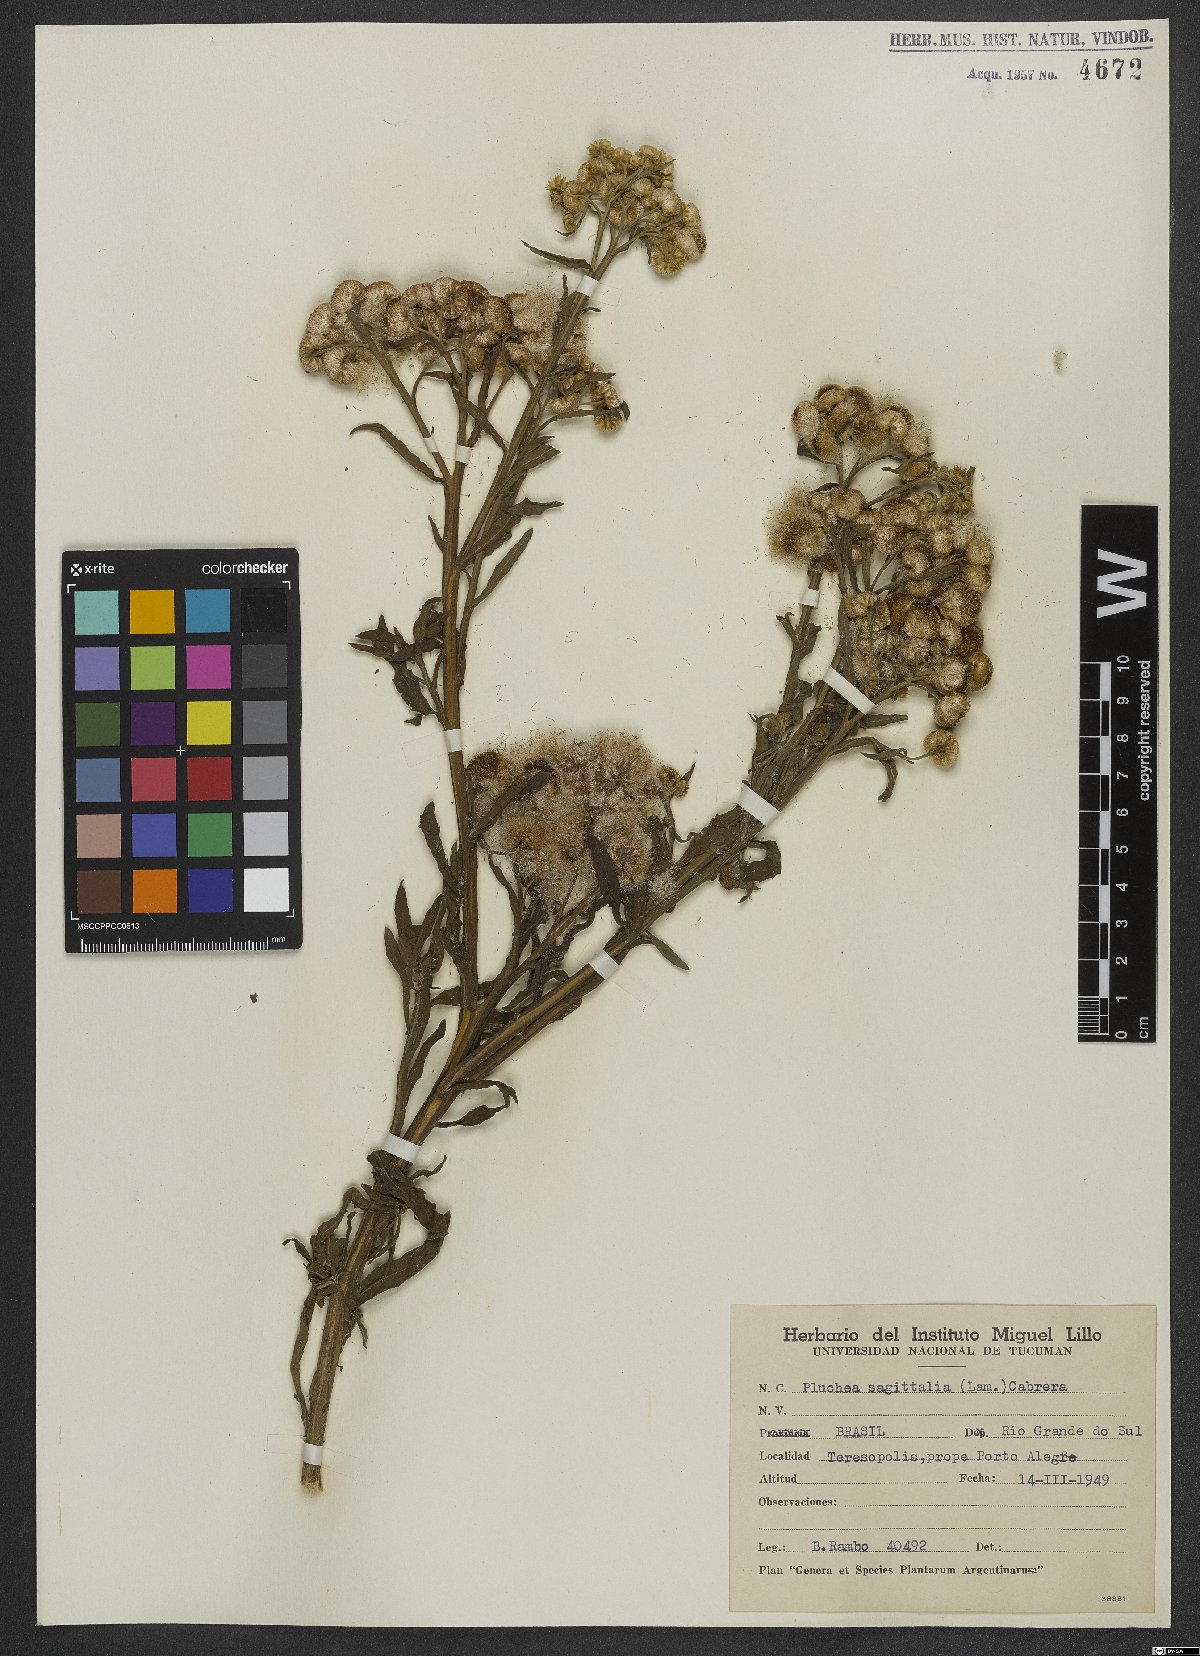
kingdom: Plantae
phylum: Tracheophyta
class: Magnoliopsida
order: Asterales
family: Asteraceae
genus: Pluchea
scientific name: Pluchea sagittalis
